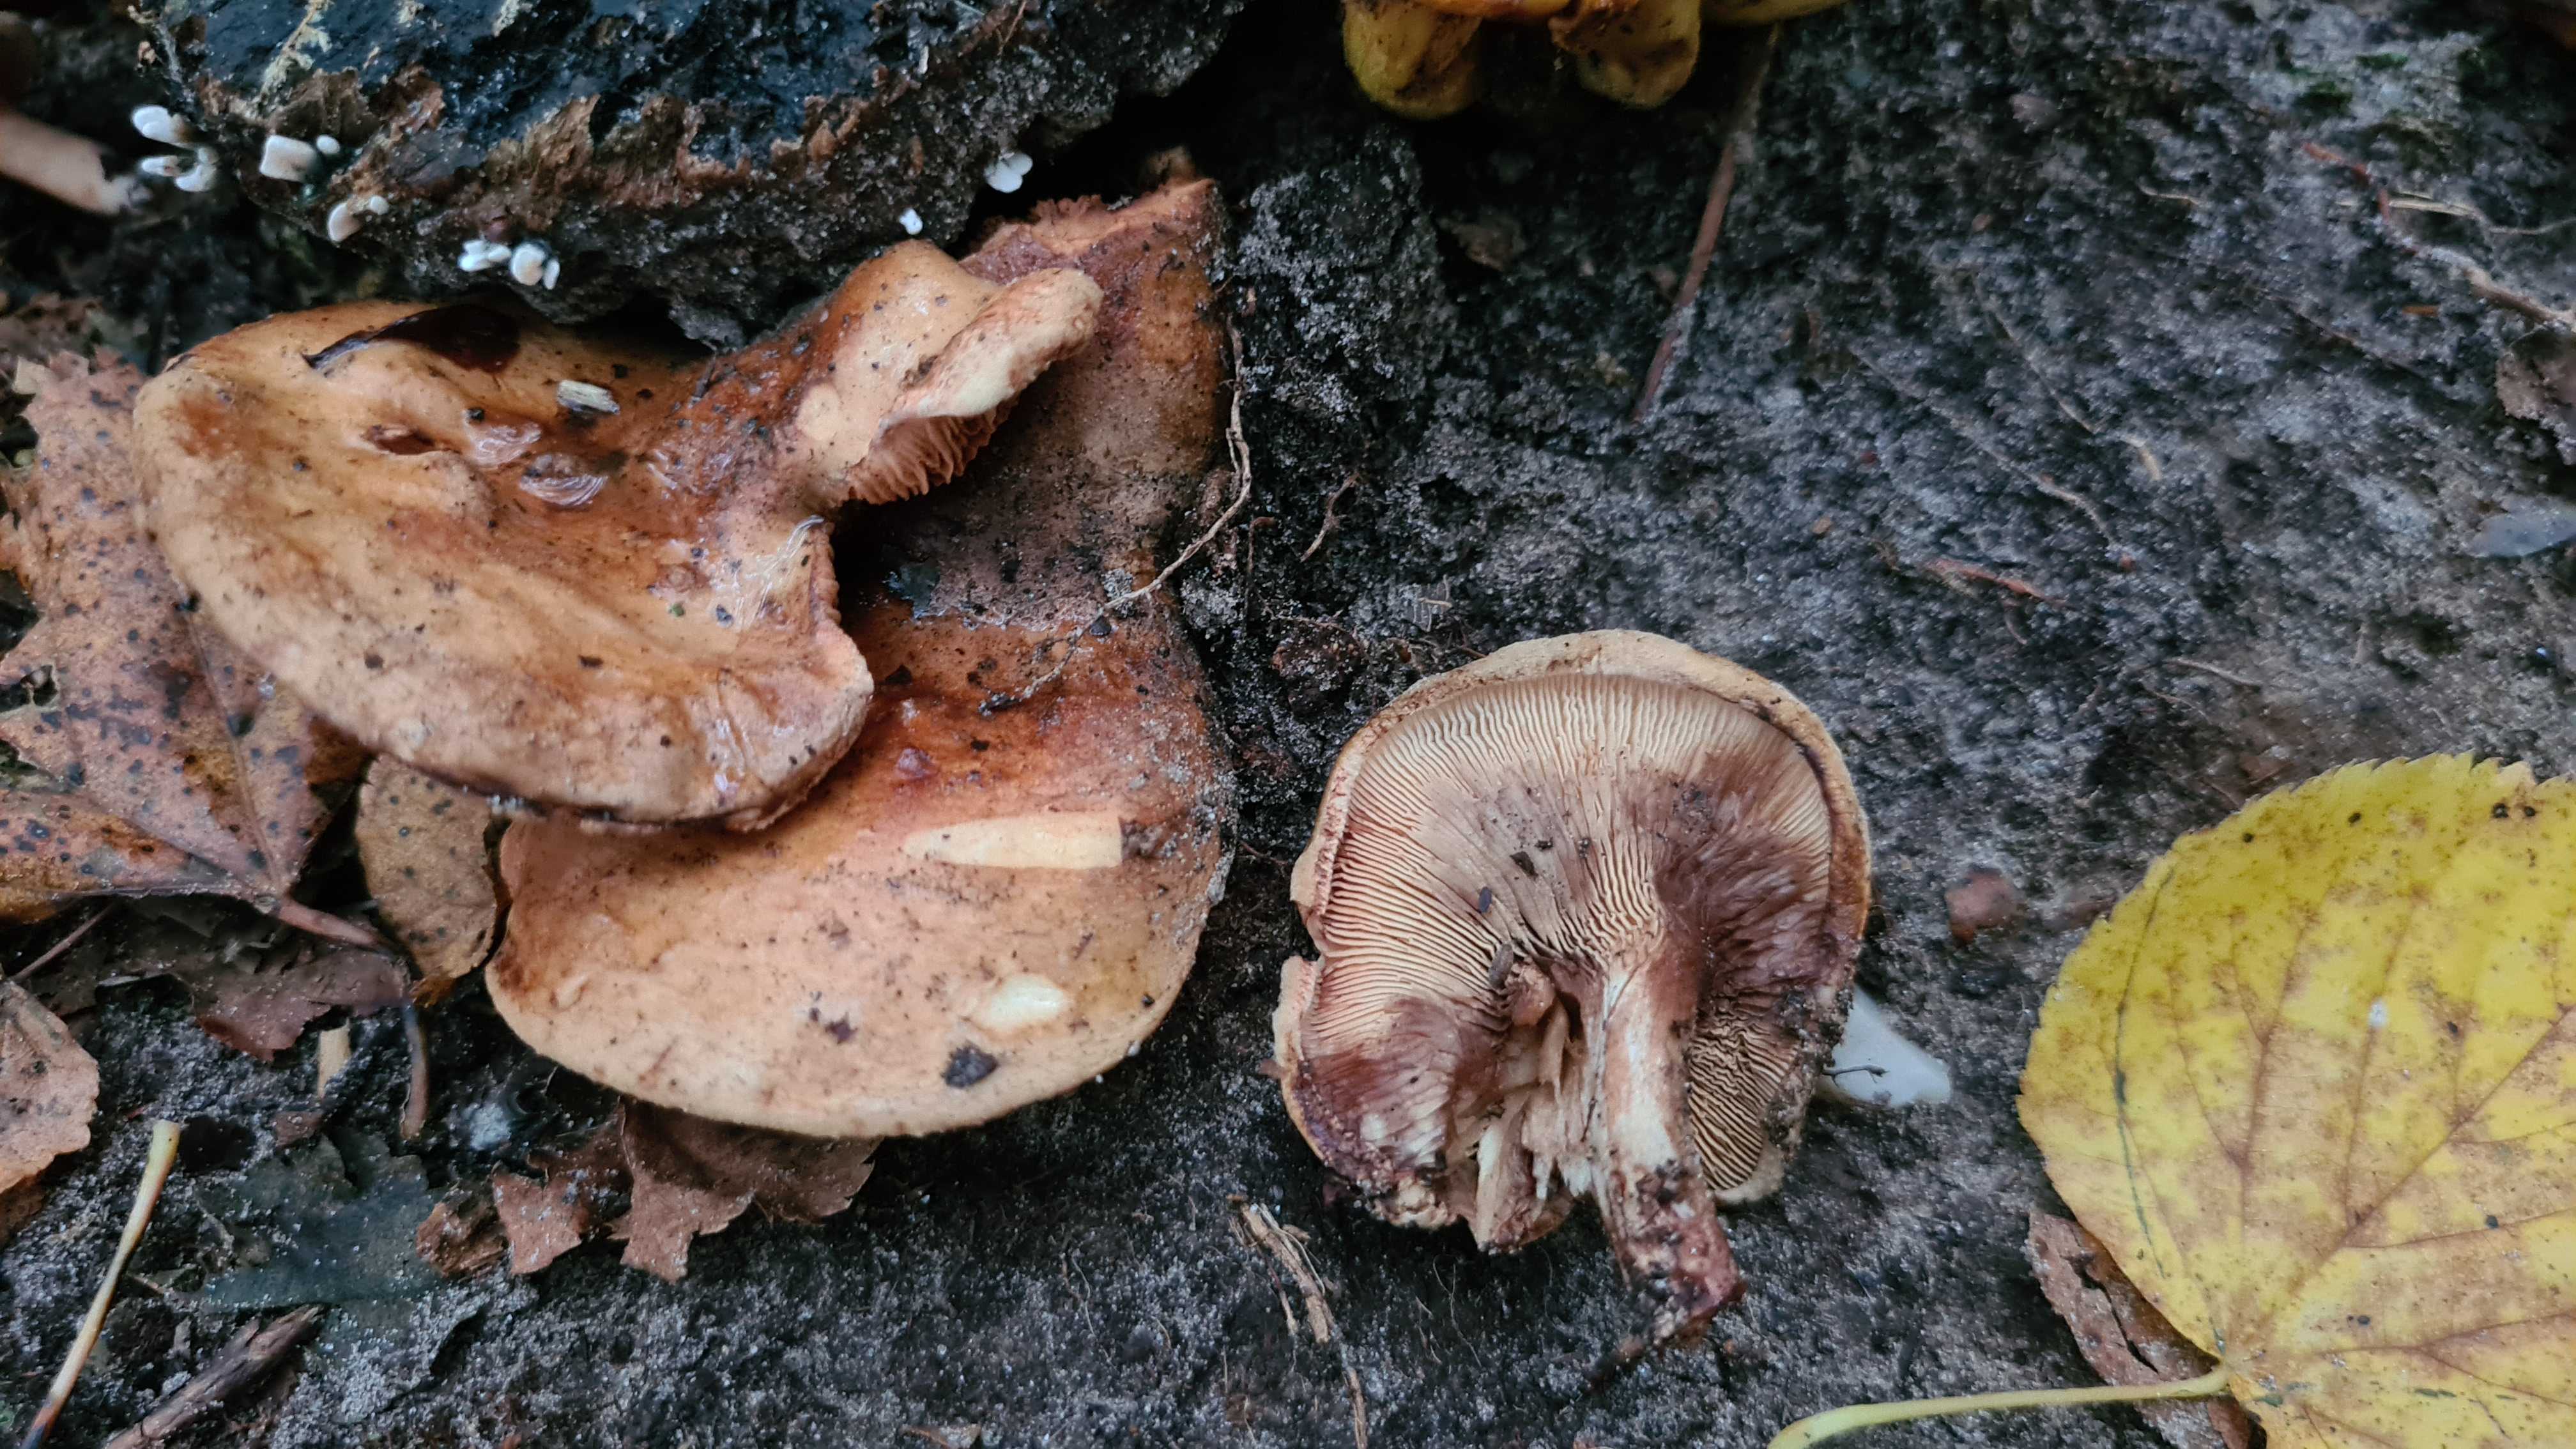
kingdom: Fungi
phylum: Basidiomycota
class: Agaricomycetes
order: Boletales
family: Tapinellaceae
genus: Tapinella
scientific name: Tapinella atrotomentosa
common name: sortfiltet viftesvamp
